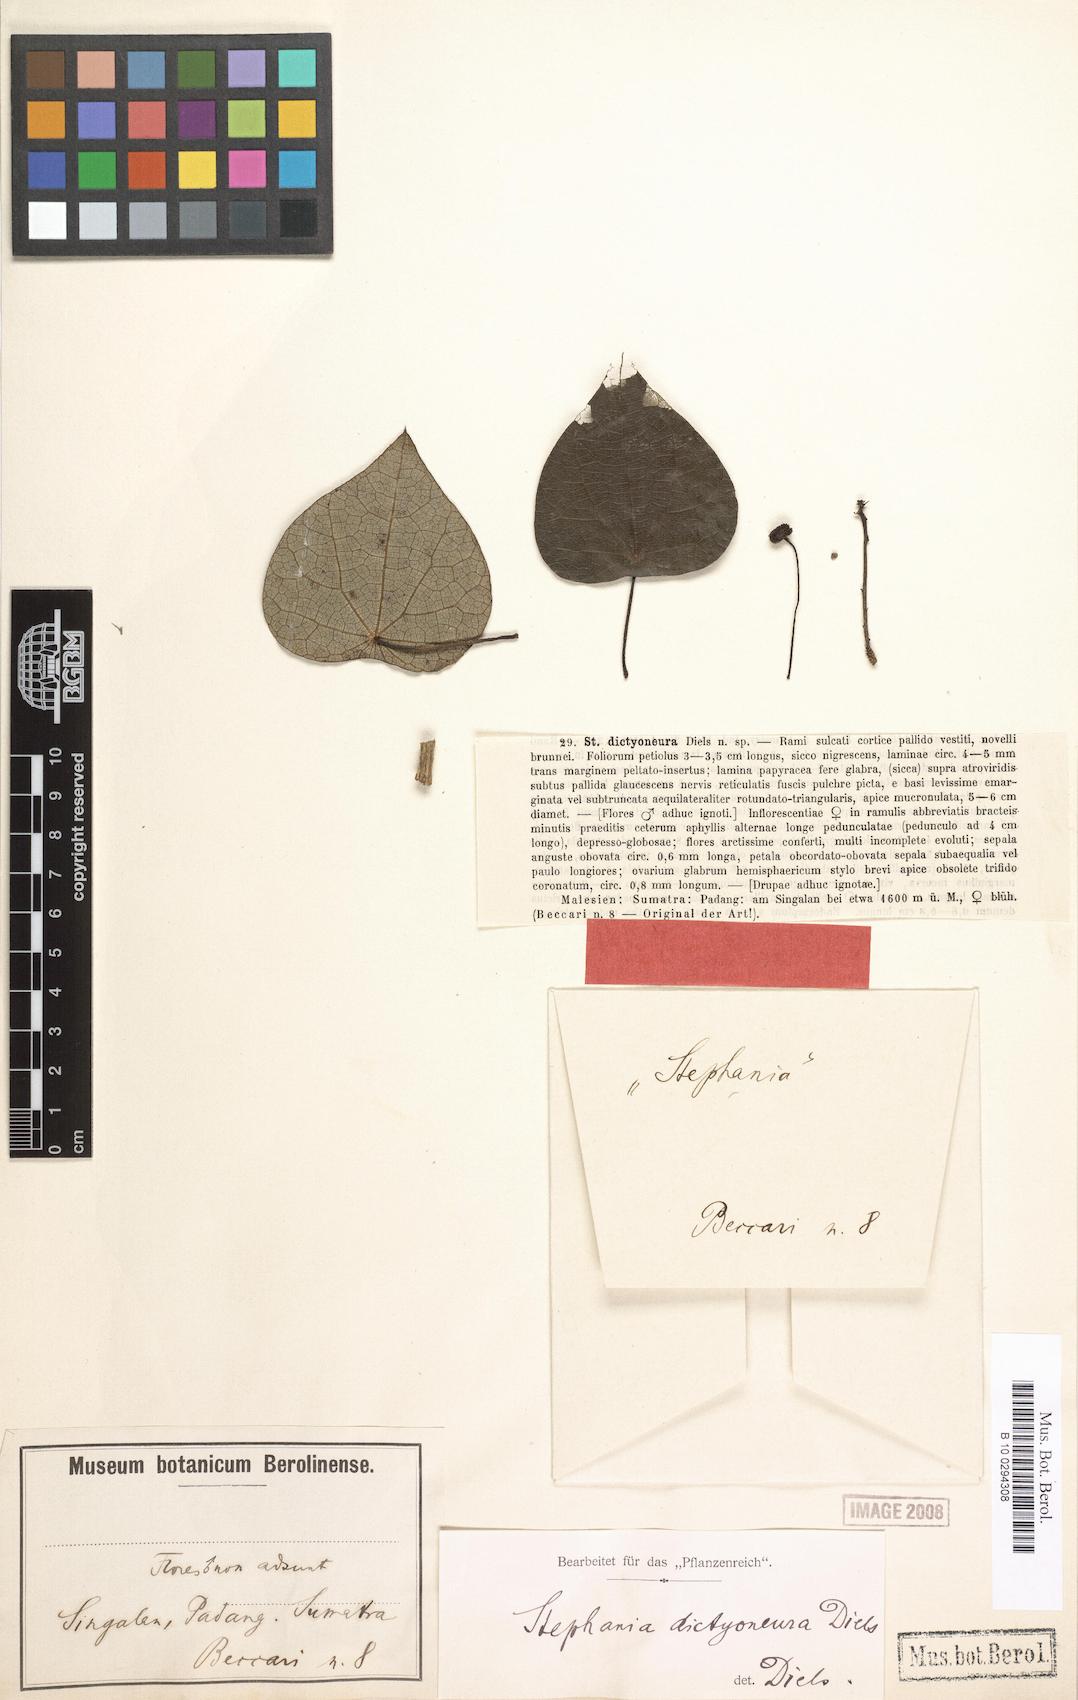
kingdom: Plantae
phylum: Tracheophyta
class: Magnoliopsida
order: Ranunculales
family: Menispermaceae
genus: Stephania
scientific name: Stephania dictyoneura
